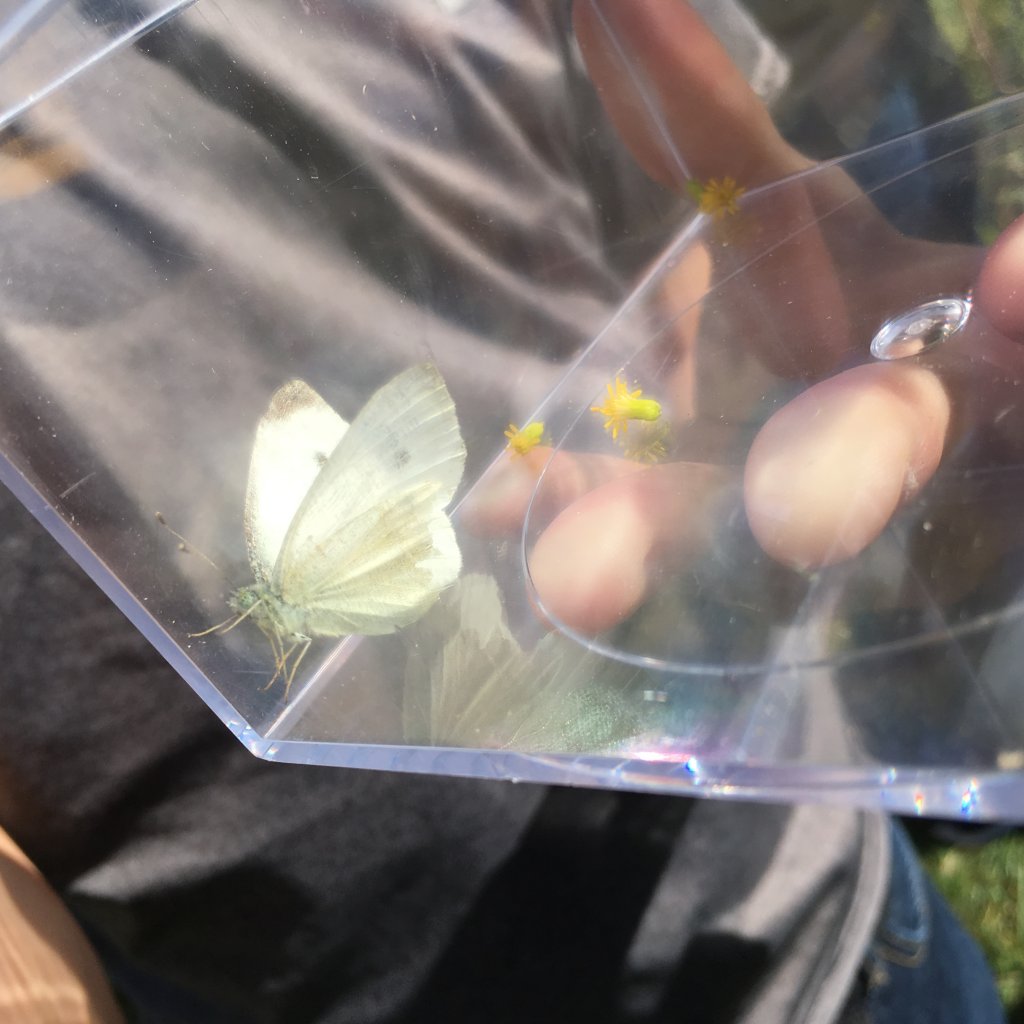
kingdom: Animalia
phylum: Arthropoda
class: Insecta
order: Lepidoptera
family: Pieridae
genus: Pieris
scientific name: Pieris rapae
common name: Cabbage White
